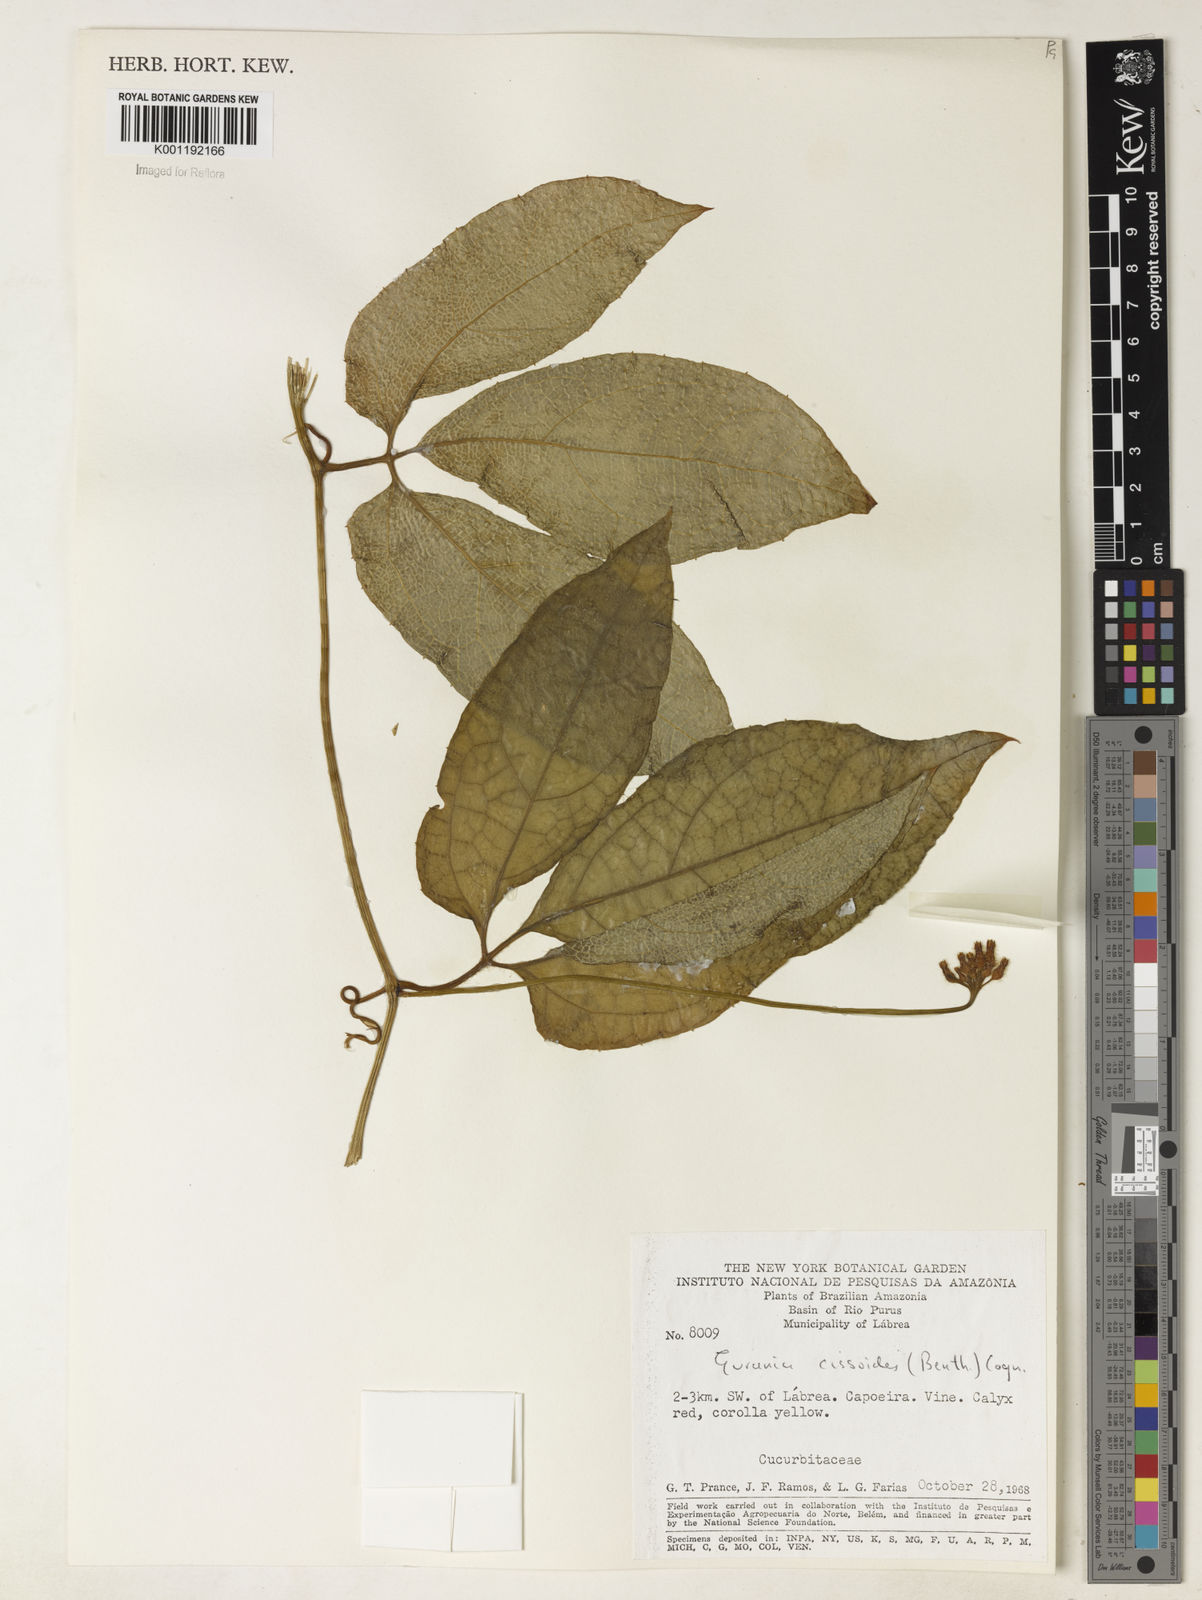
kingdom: Plantae
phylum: Tracheophyta
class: Magnoliopsida
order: Cucurbitales
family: Cucurbitaceae
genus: Gurania
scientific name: Gurania bignoniacea
